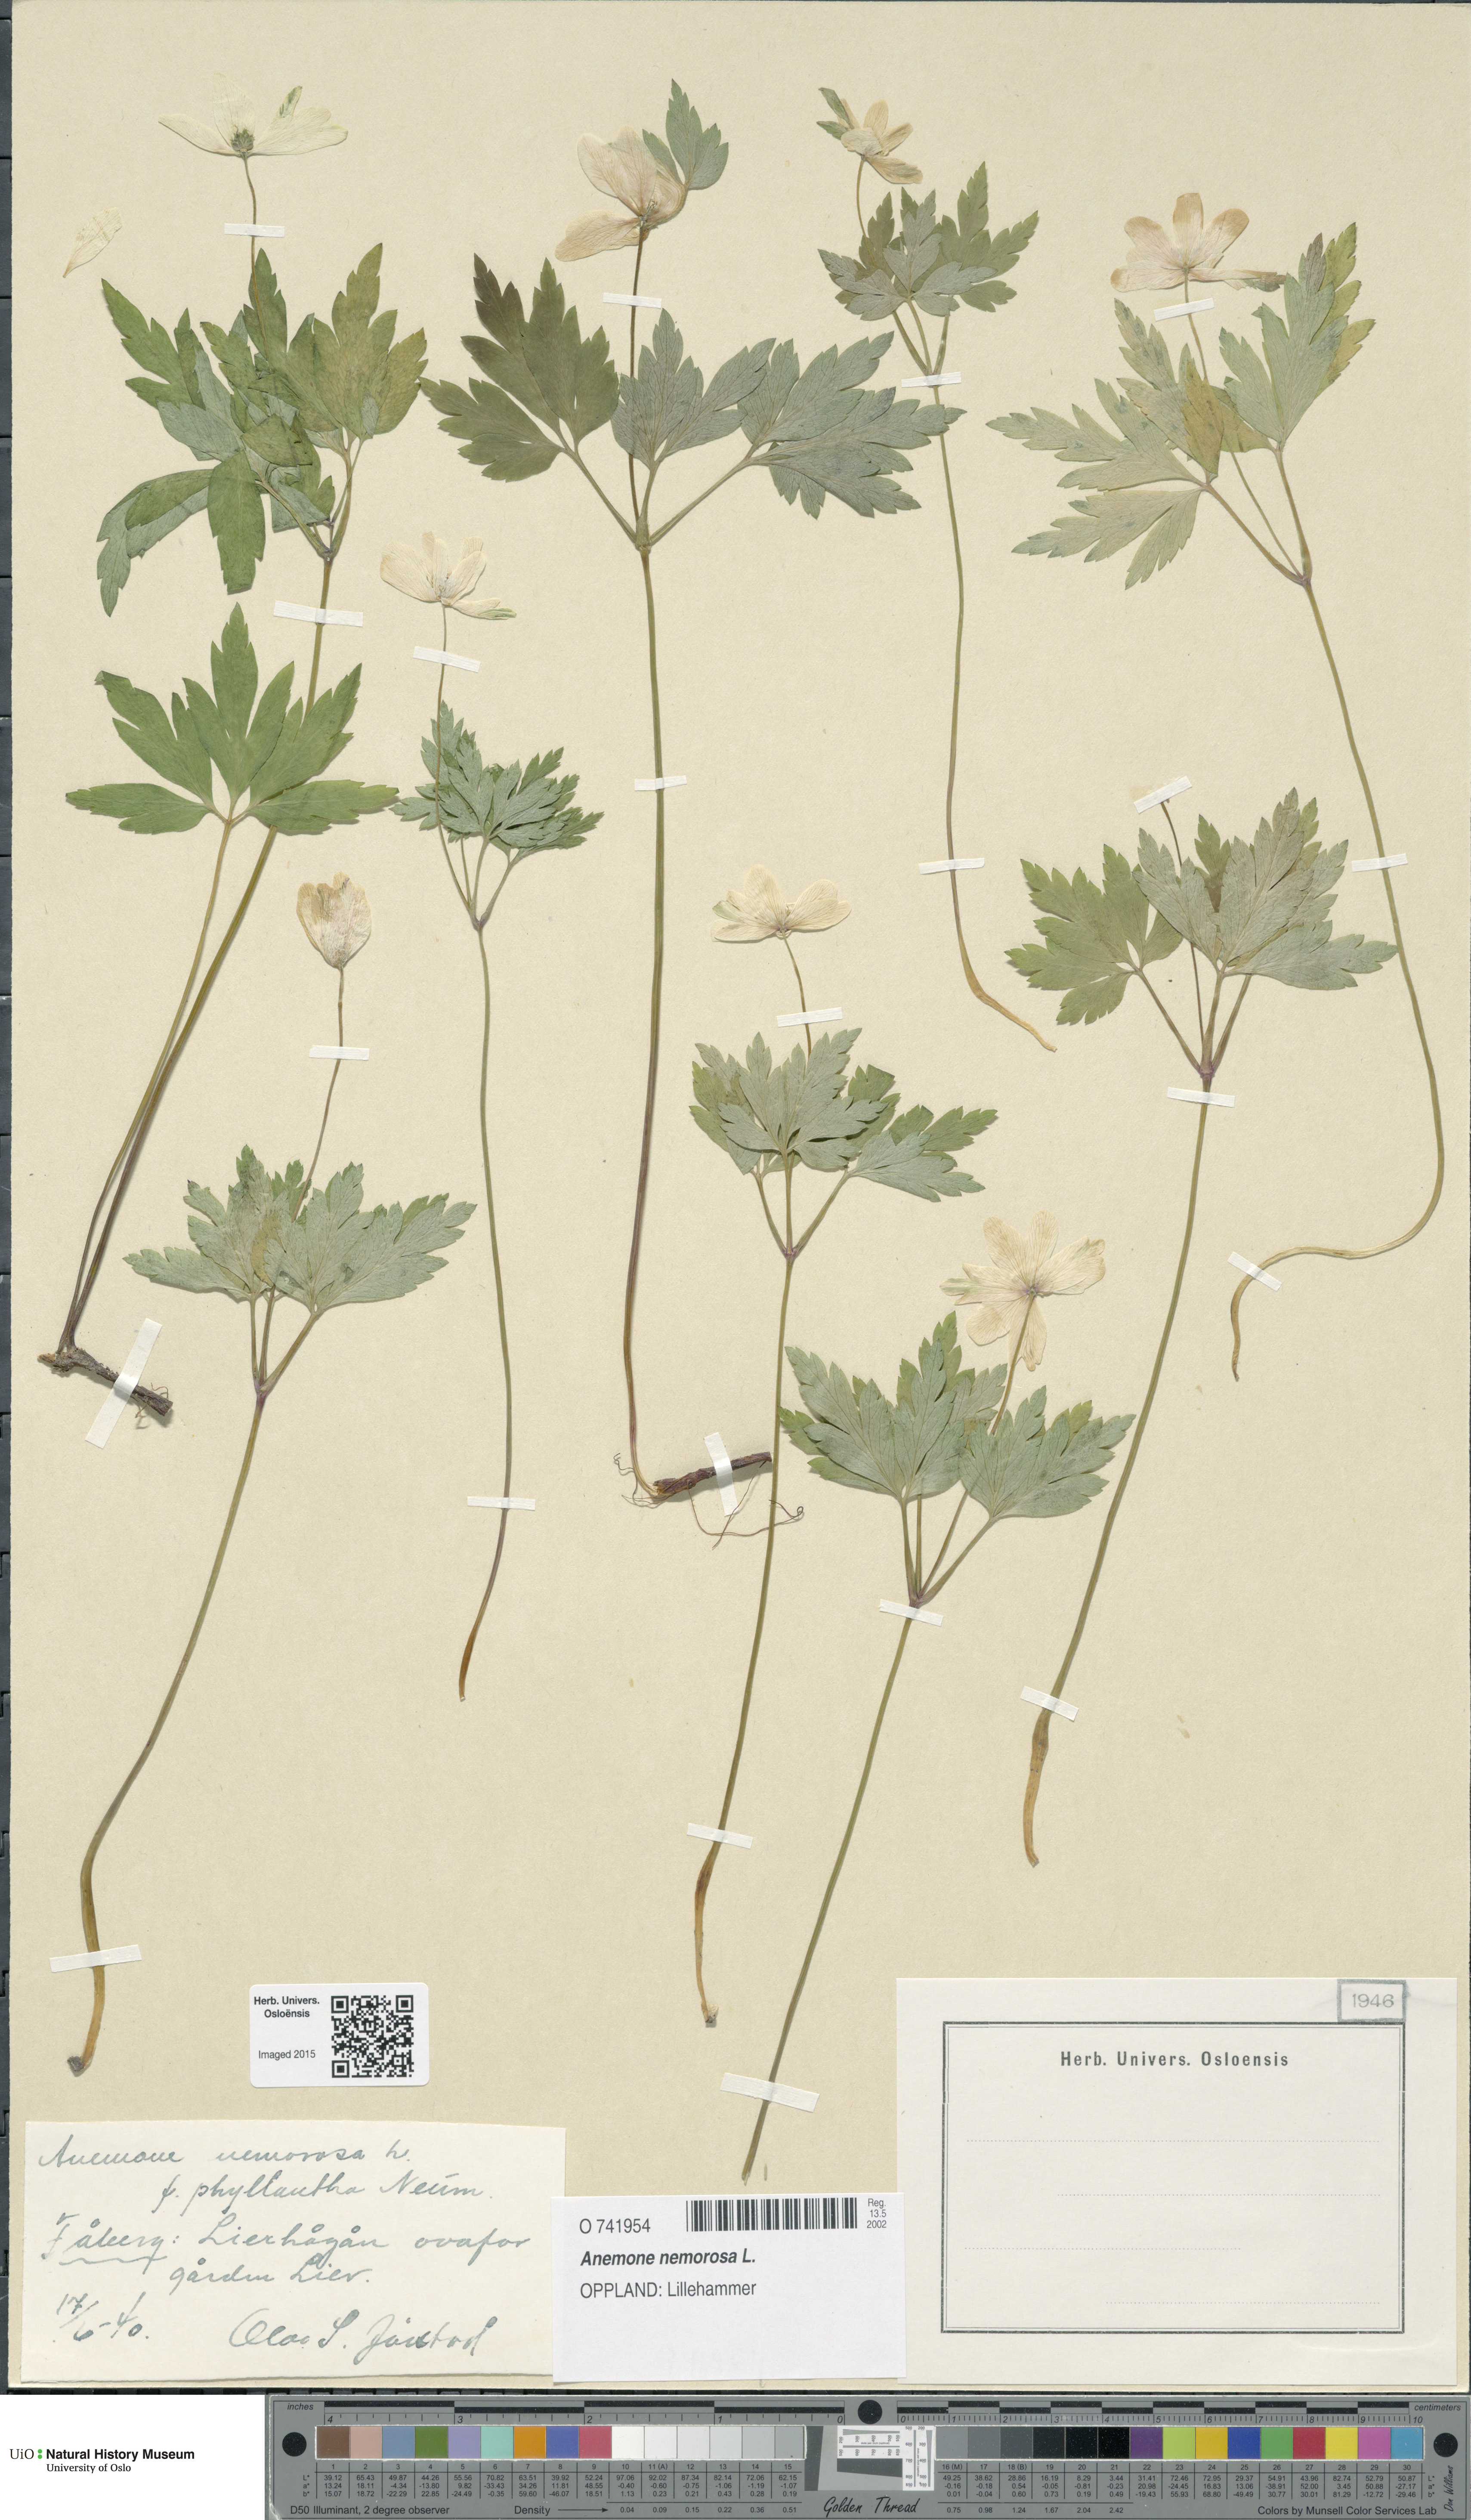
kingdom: Plantae
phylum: Tracheophyta
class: Magnoliopsida
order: Ranunculales
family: Ranunculaceae
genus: Anemone
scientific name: Anemone nemorosa
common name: Wood anemone
